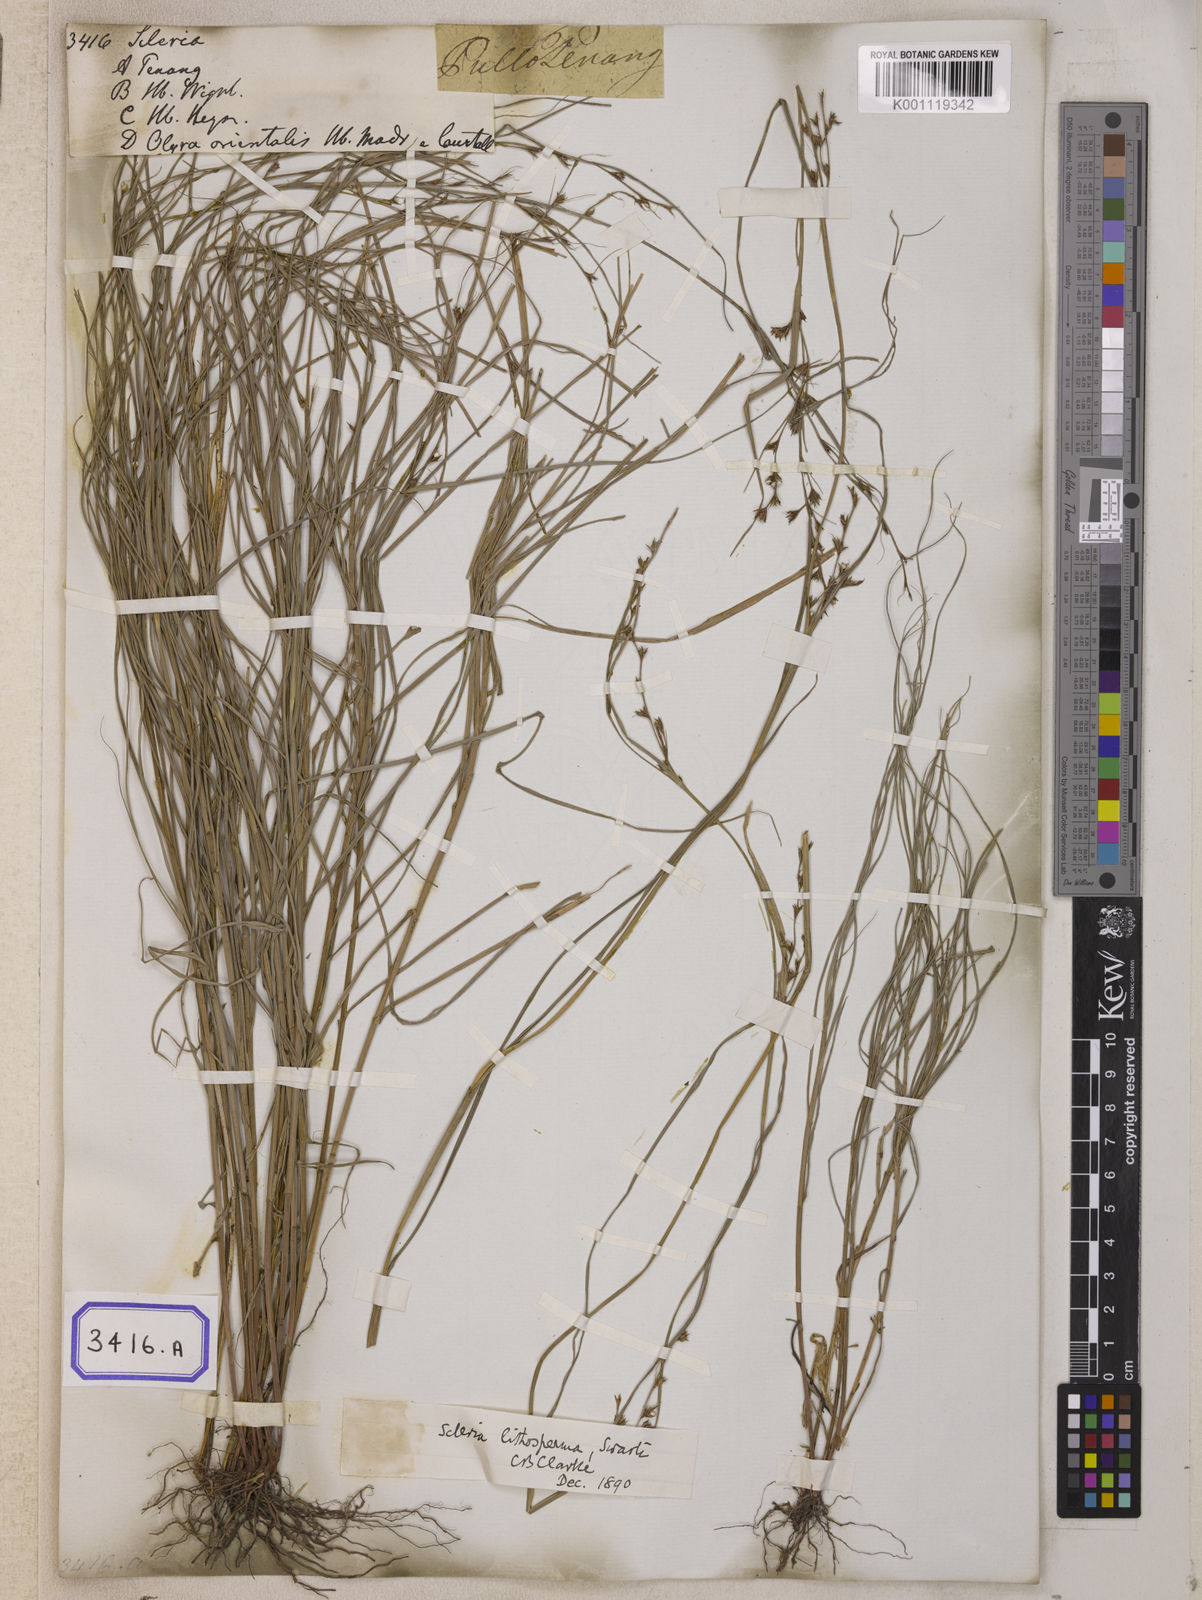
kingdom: Plantae
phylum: Tracheophyta
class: Liliopsida
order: Poales
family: Cyperaceae
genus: Scleria
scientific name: Scleria
